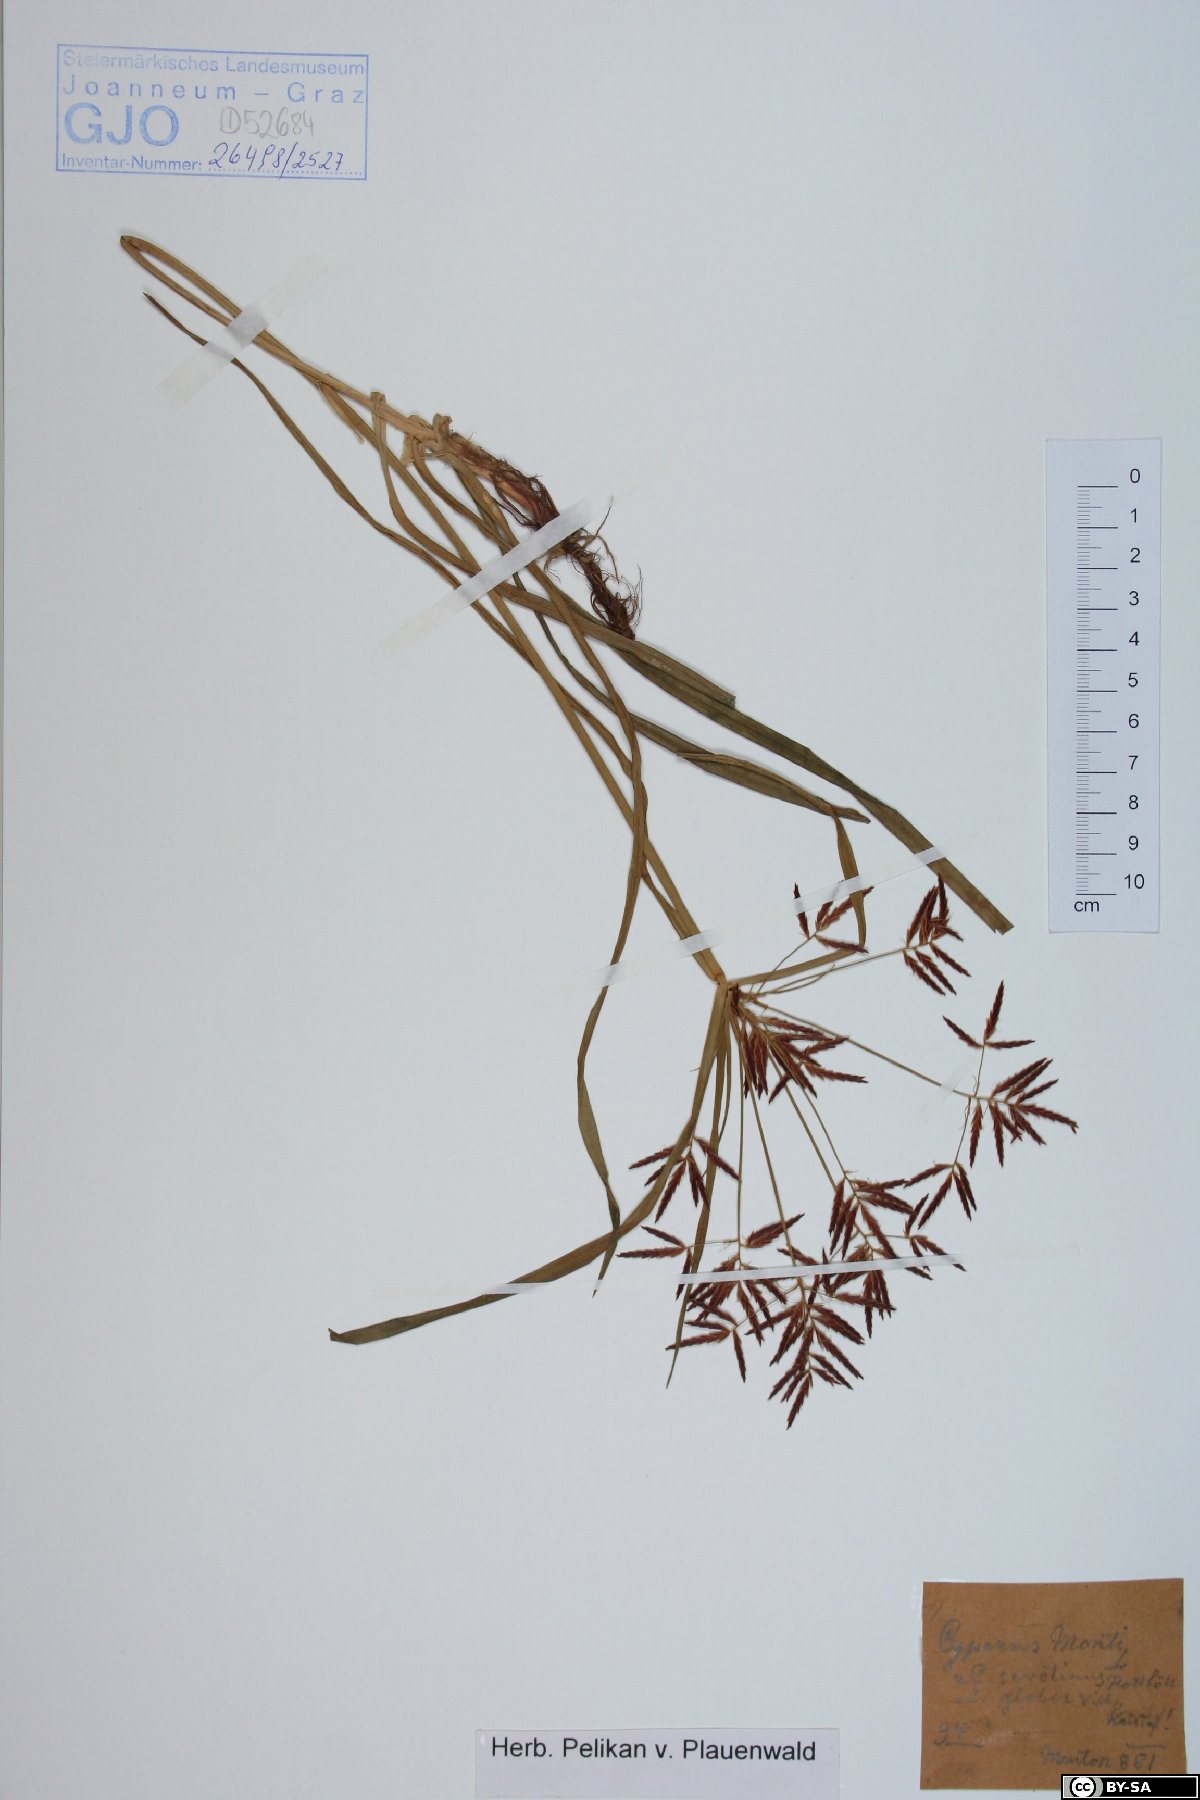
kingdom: Plantae
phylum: Tracheophyta
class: Liliopsida
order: Poales
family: Cyperaceae
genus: Cyperus
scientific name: Cyperus serotinus
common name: Tidalmarsh flatsedge
